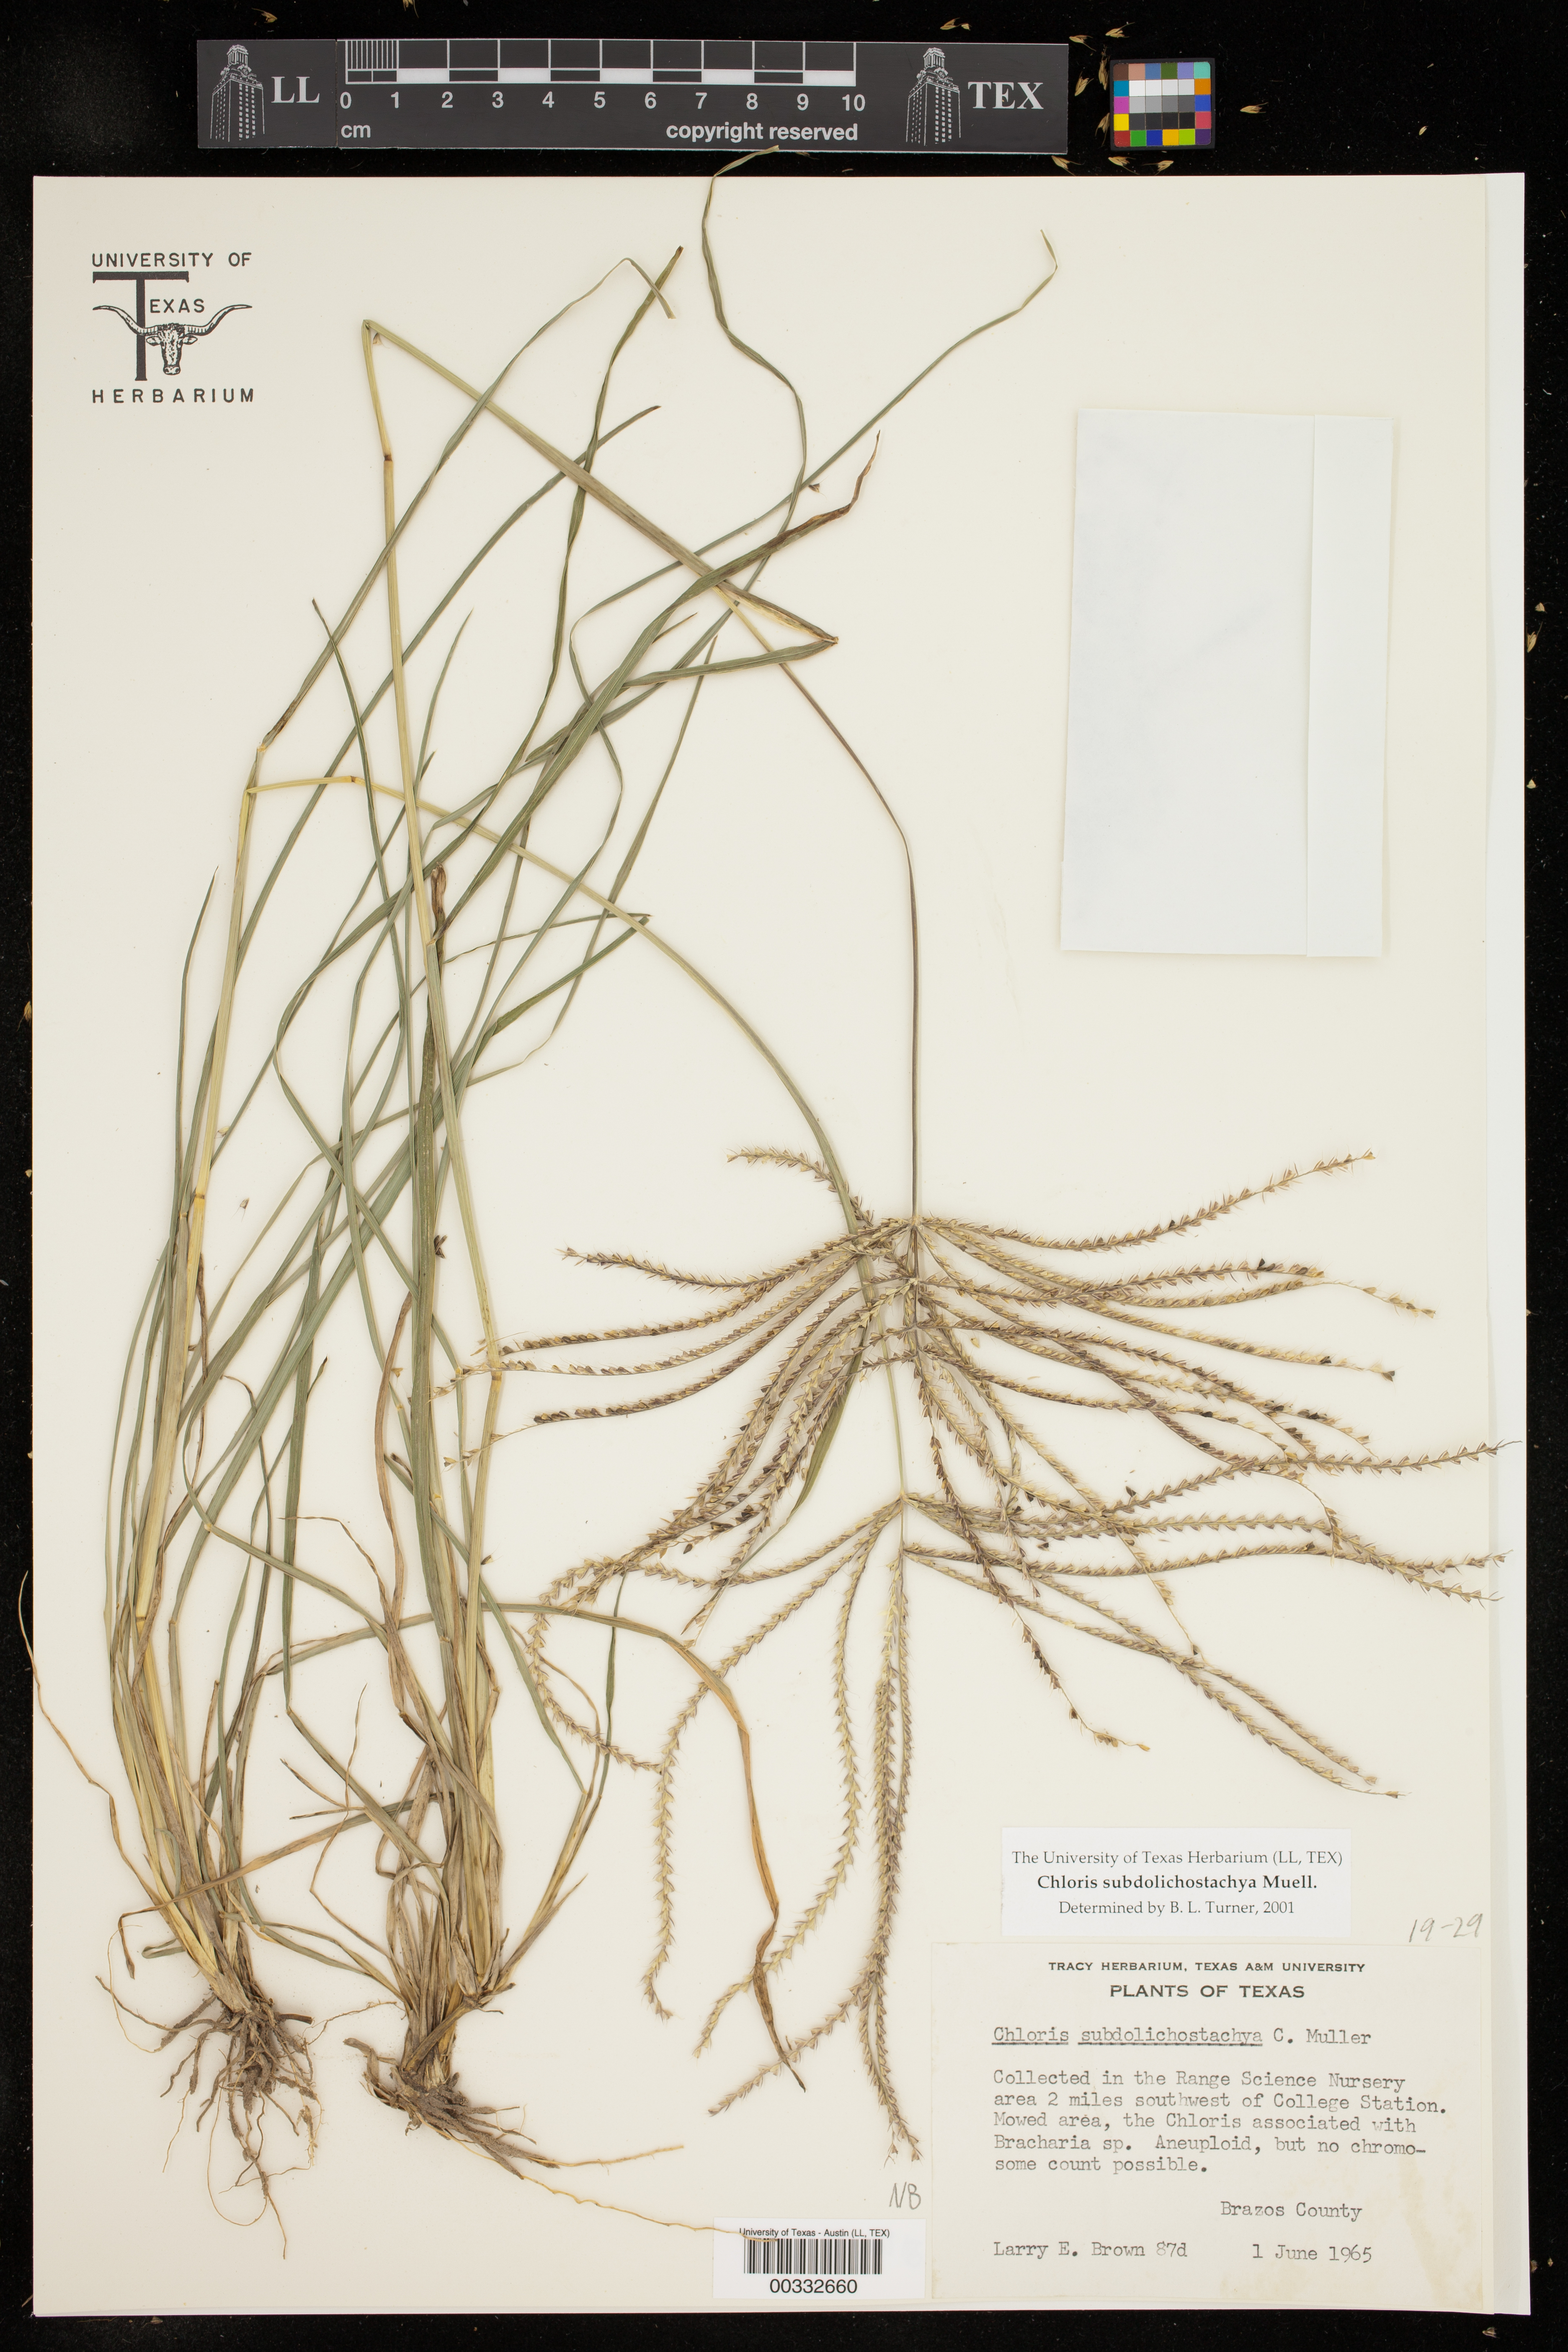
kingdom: Plantae
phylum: Tracheophyta
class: Liliopsida
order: Poales
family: Poaceae
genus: Chloris
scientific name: Chloris subdolichostachya
